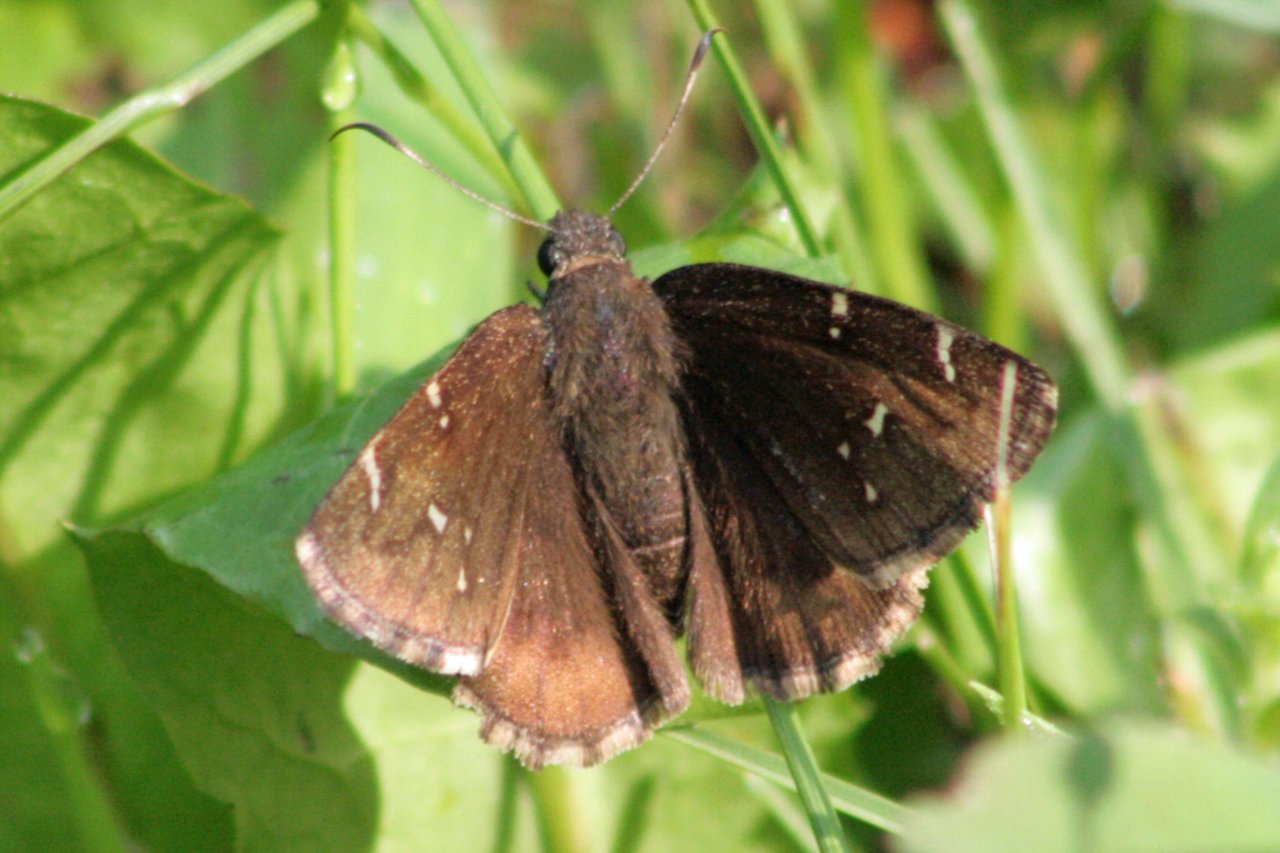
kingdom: Animalia
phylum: Arthropoda
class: Insecta
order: Lepidoptera
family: Hesperiidae
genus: Autochton
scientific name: Autochton
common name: Northern Cloudywing
